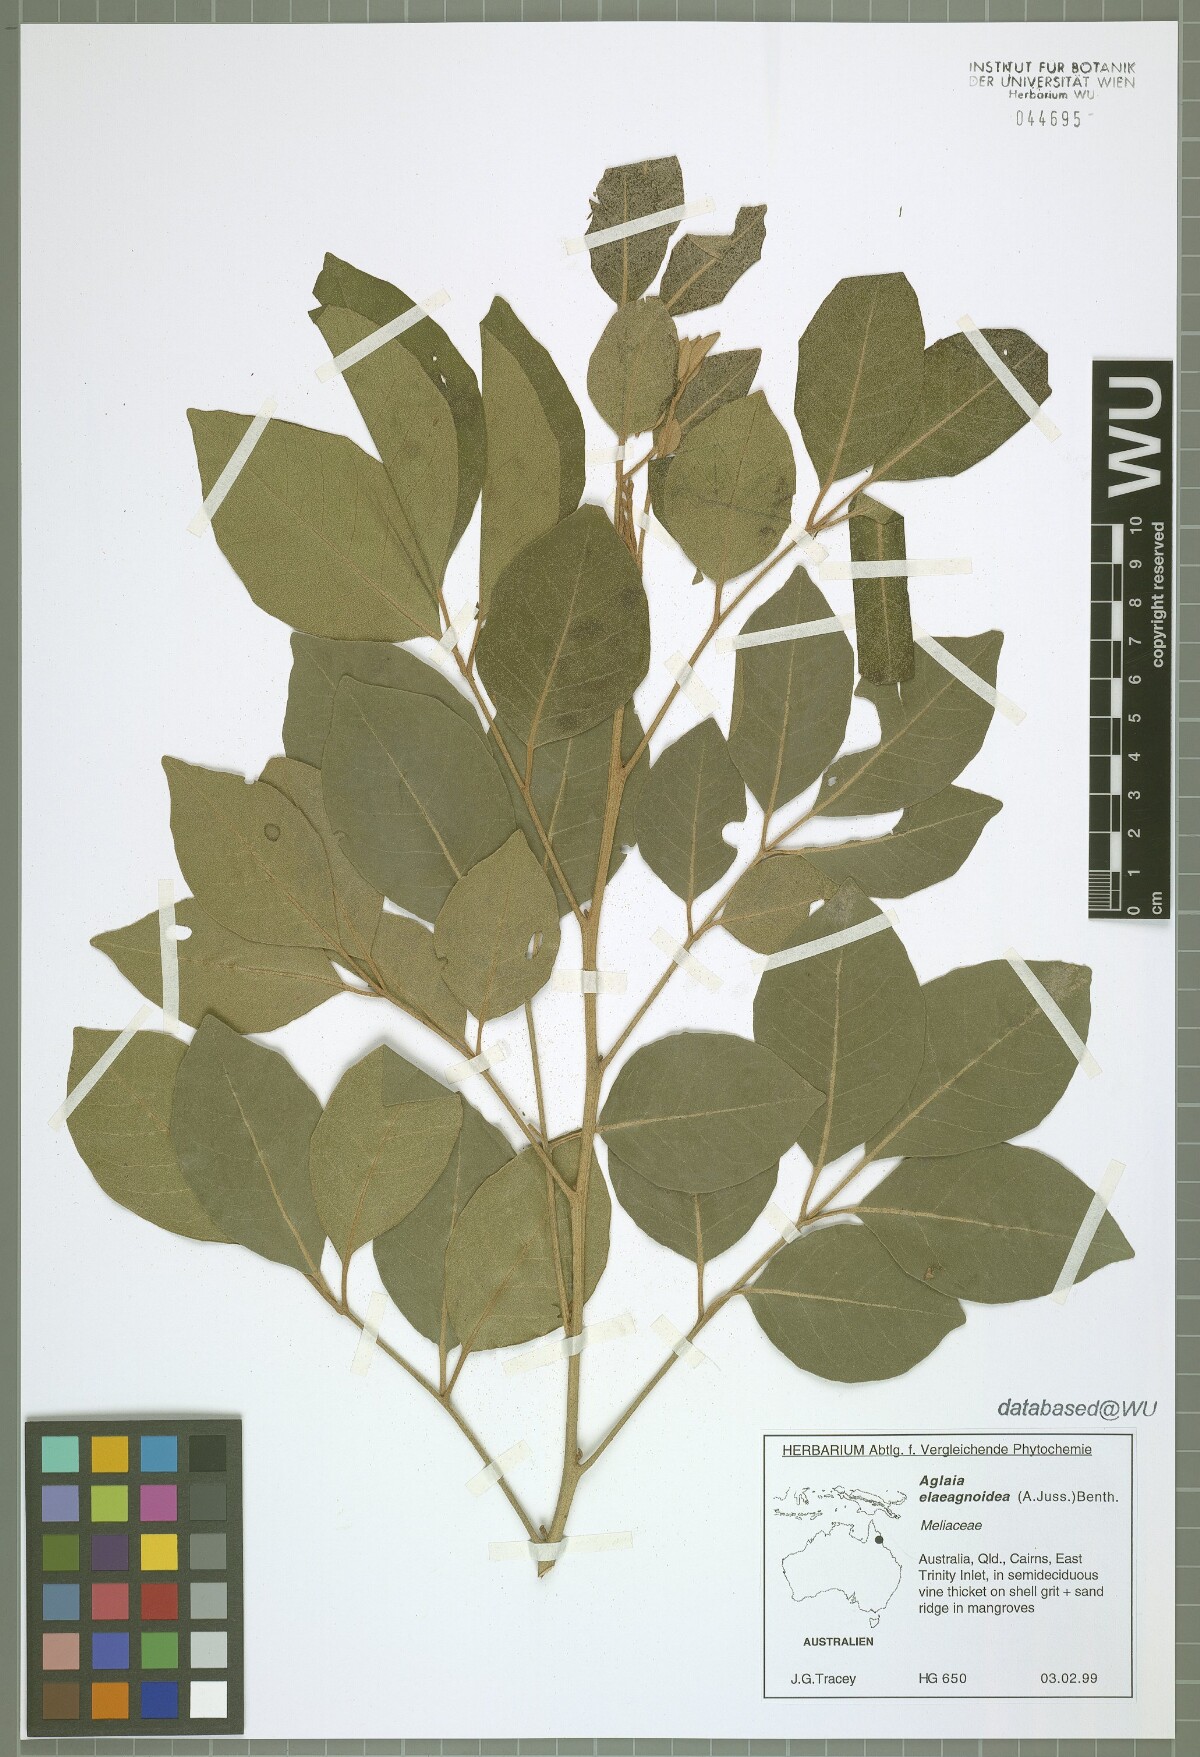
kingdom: Plantae
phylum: Tracheophyta
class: Magnoliopsida
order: Sapindales
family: Meliaceae
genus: Aglaia
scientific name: Aglaia elaeagnoidea
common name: Droopyleaf
